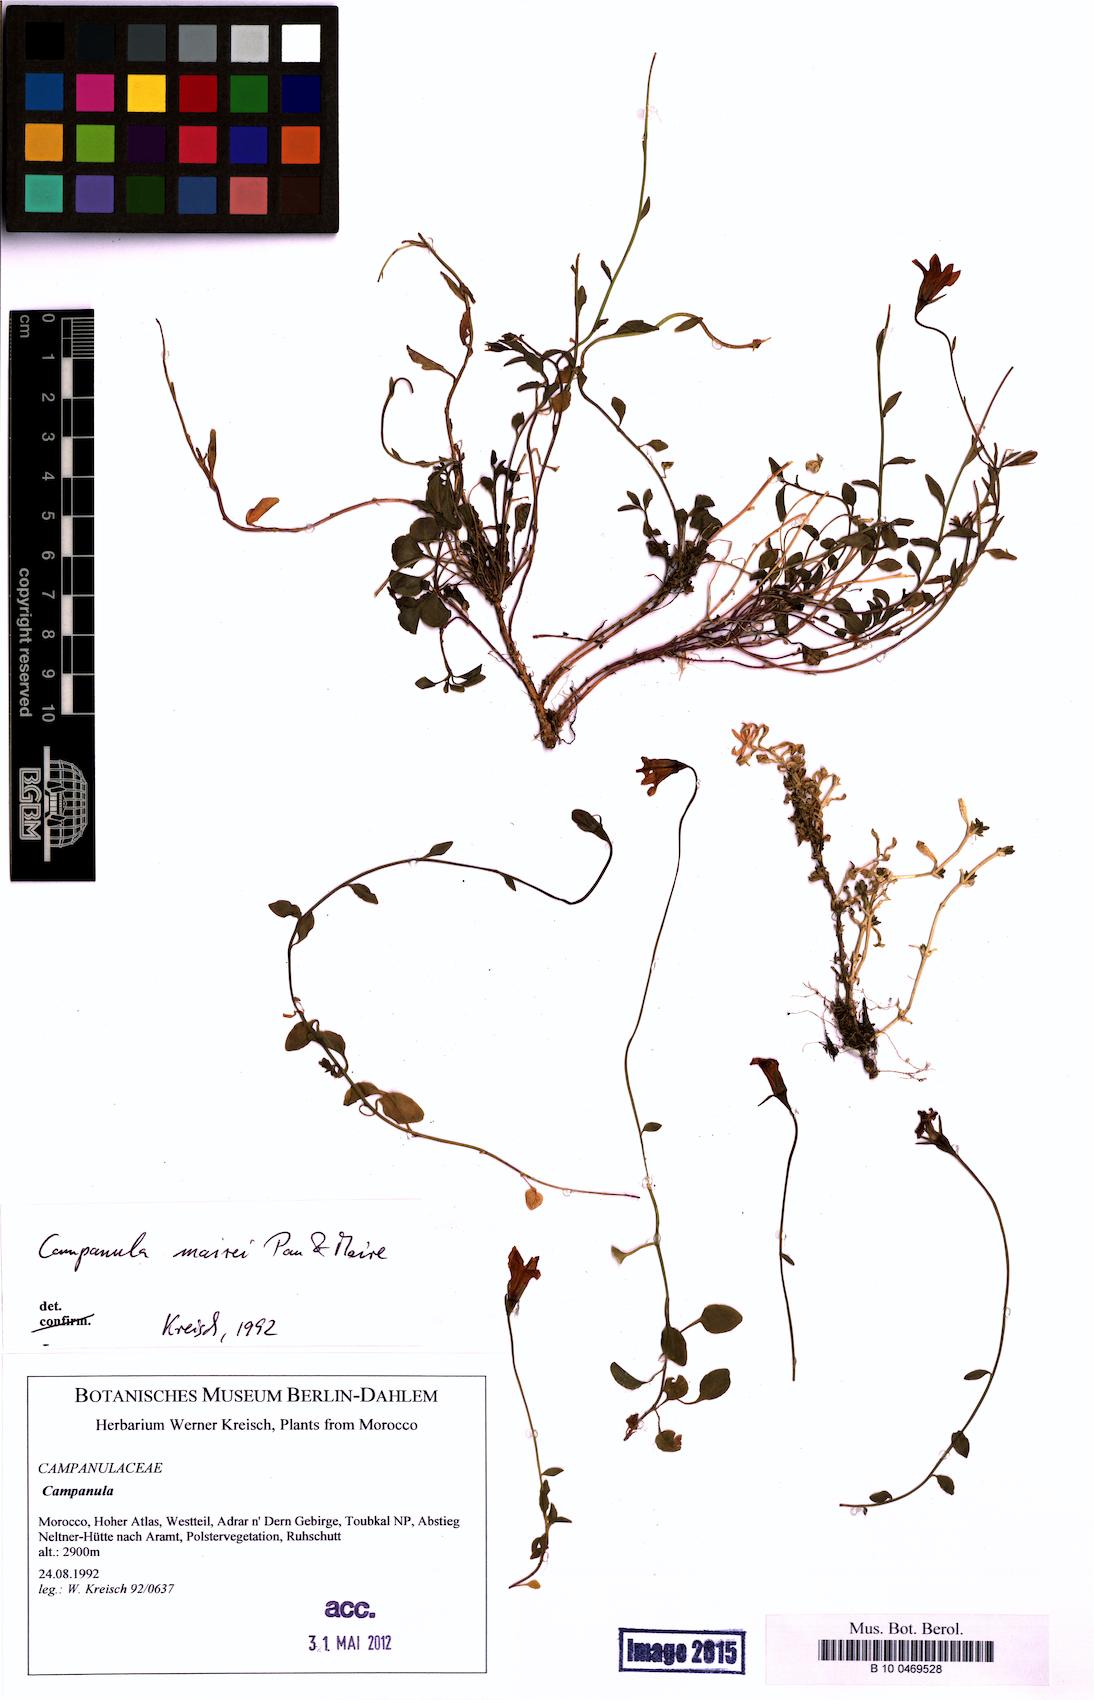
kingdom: Plantae
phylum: Tracheophyta
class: Magnoliopsida
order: Asterales
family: Campanulaceae
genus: Campanula
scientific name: Campanula mairei
